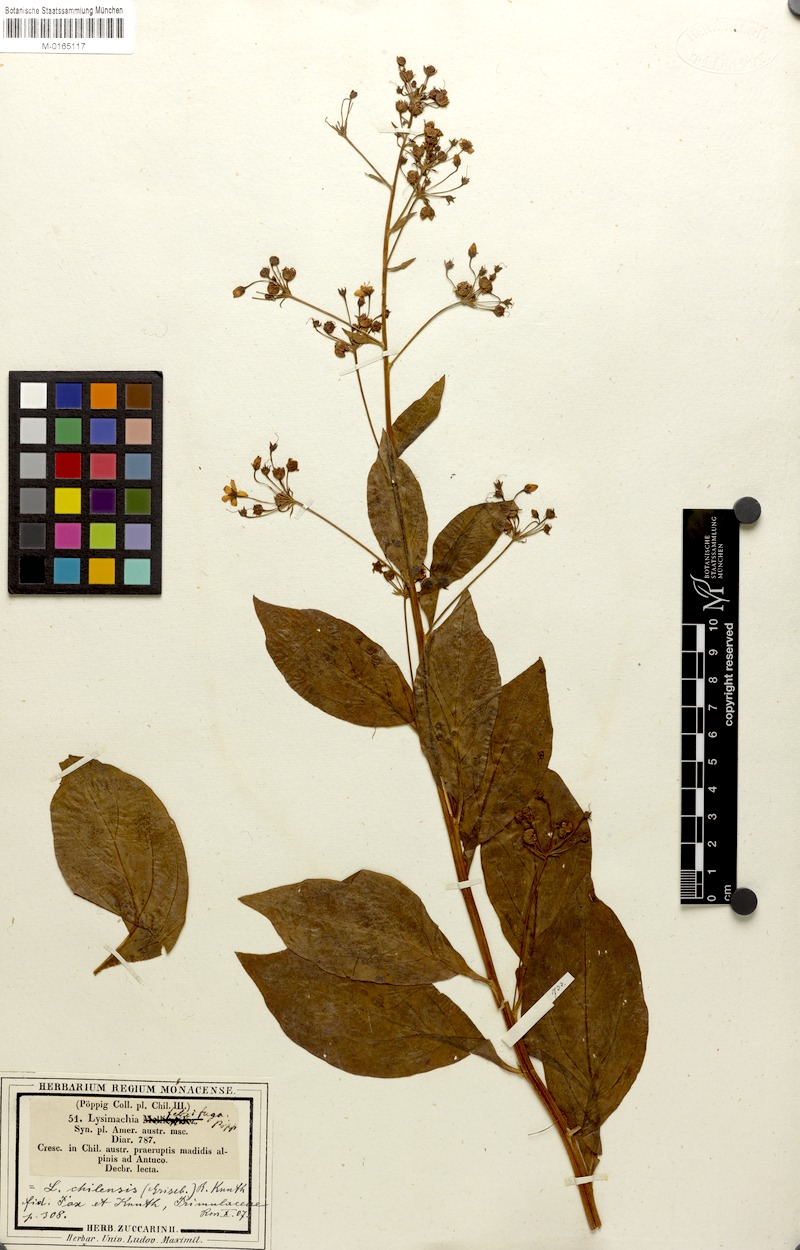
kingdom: Plantae
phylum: Tracheophyta
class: Magnoliopsida
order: Ericales
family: Primulaceae
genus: Lysimachia
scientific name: Lysimachia sertulata
